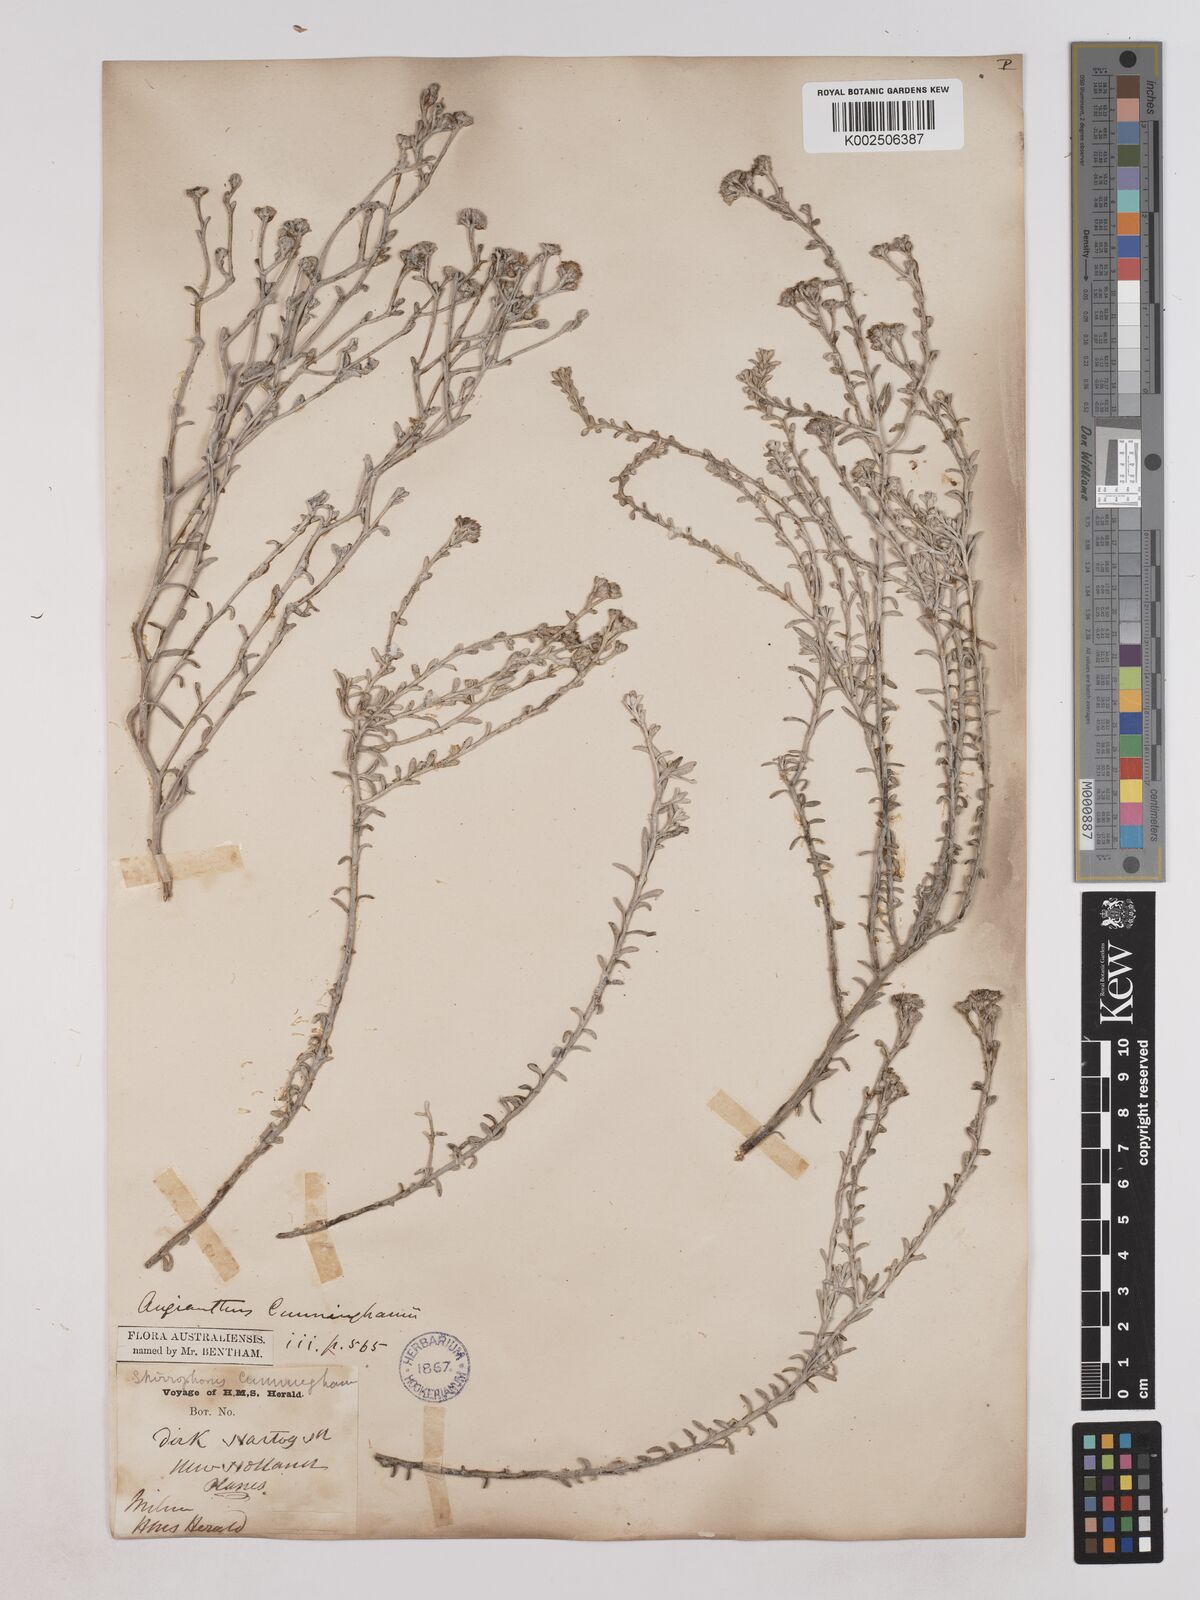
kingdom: Plantae
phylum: Tracheophyta
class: Magnoliopsida
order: Asterales
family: Asteraceae
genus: Angianthus
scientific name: Angianthus cunninghamii
